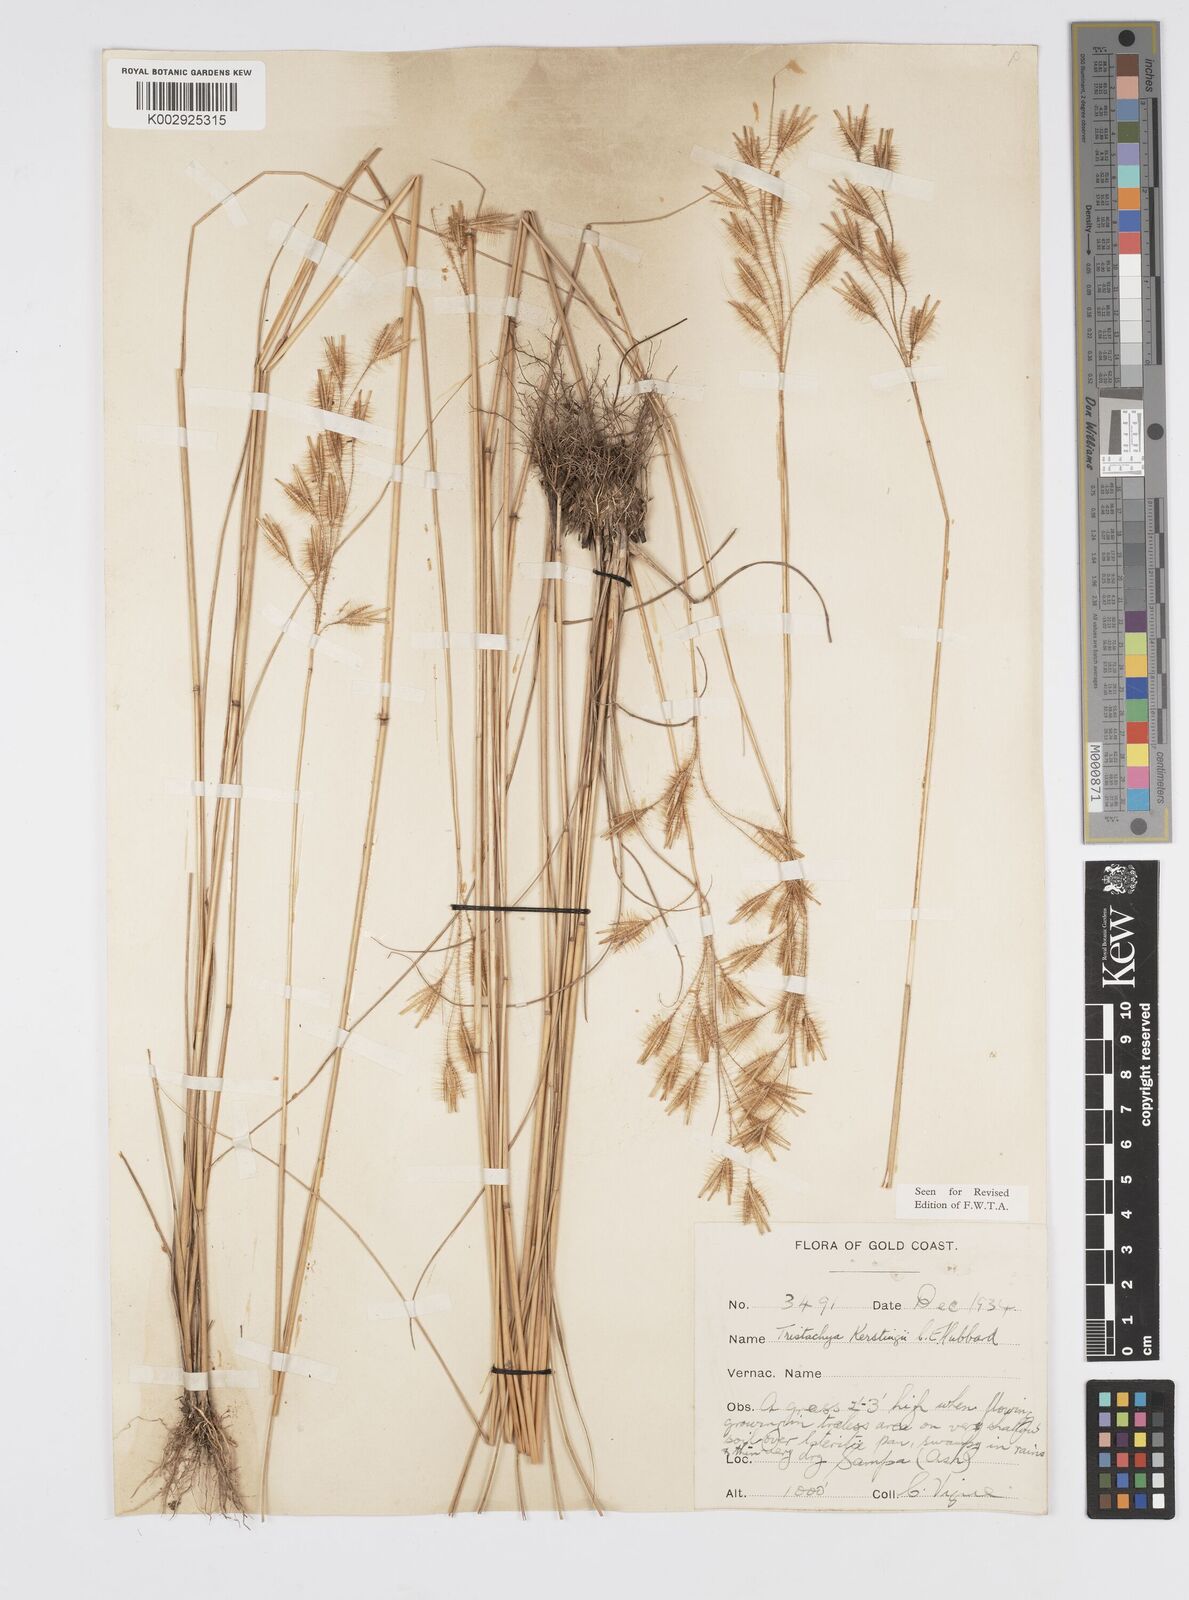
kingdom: Plantae
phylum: Tracheophyta
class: Liliopsida
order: Poales
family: Poaceae
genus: Loudetiopsis
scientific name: Loudetiopsis kerstingii
